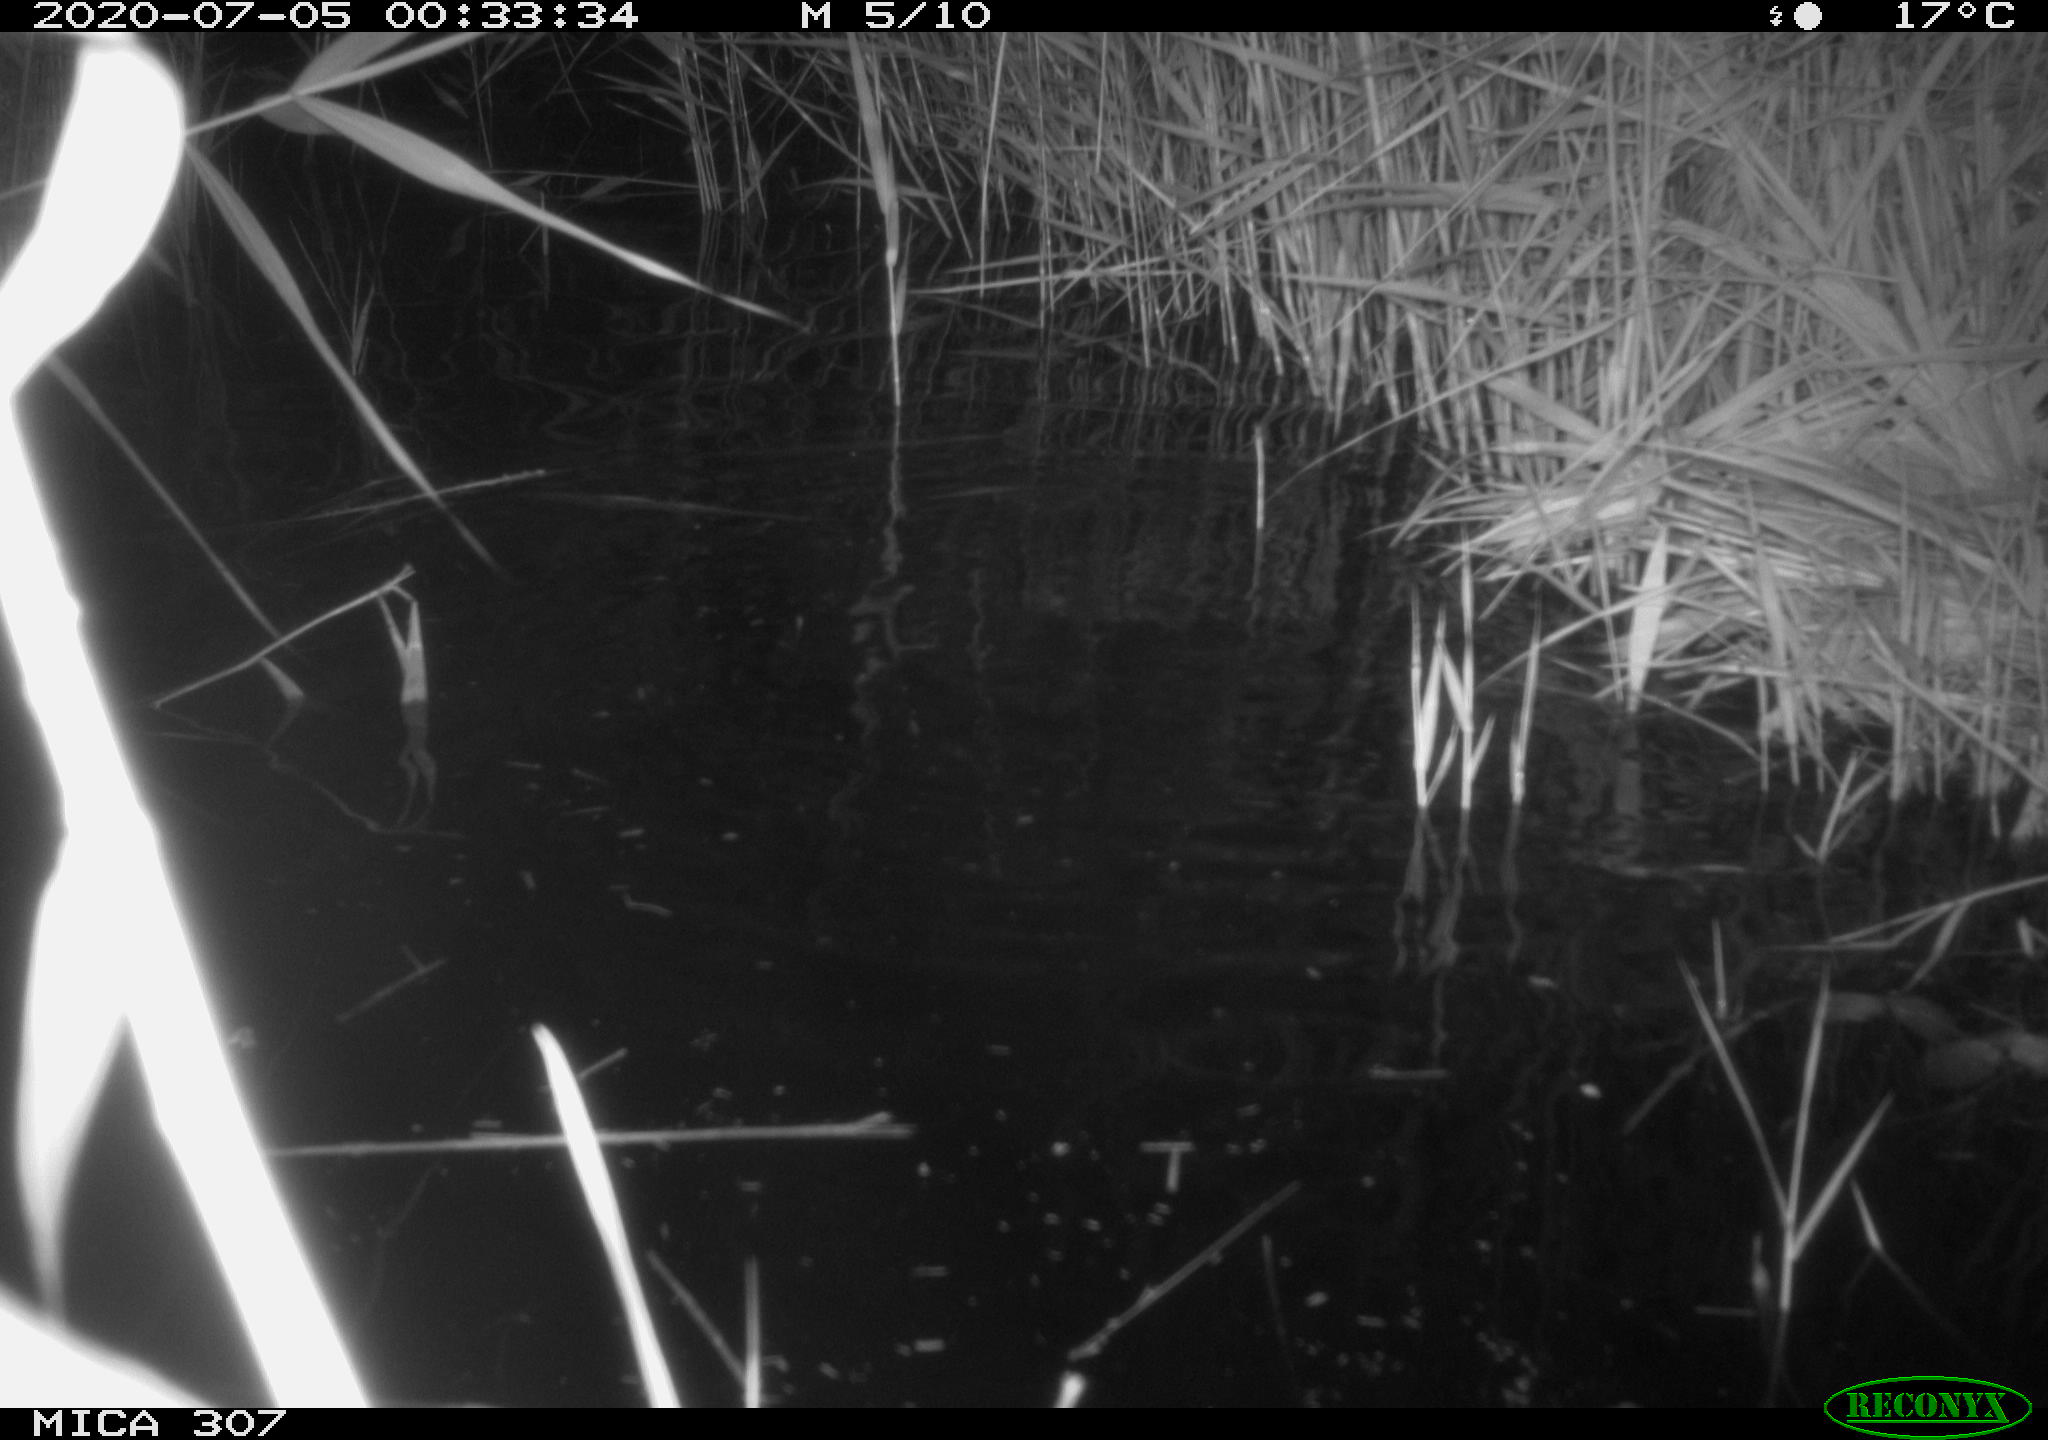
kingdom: Animalia
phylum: Chordata
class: Mammalia
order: Rodentia
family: Cricetidae
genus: Ondatra
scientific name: Ondatra zibethicus
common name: Muskrat
